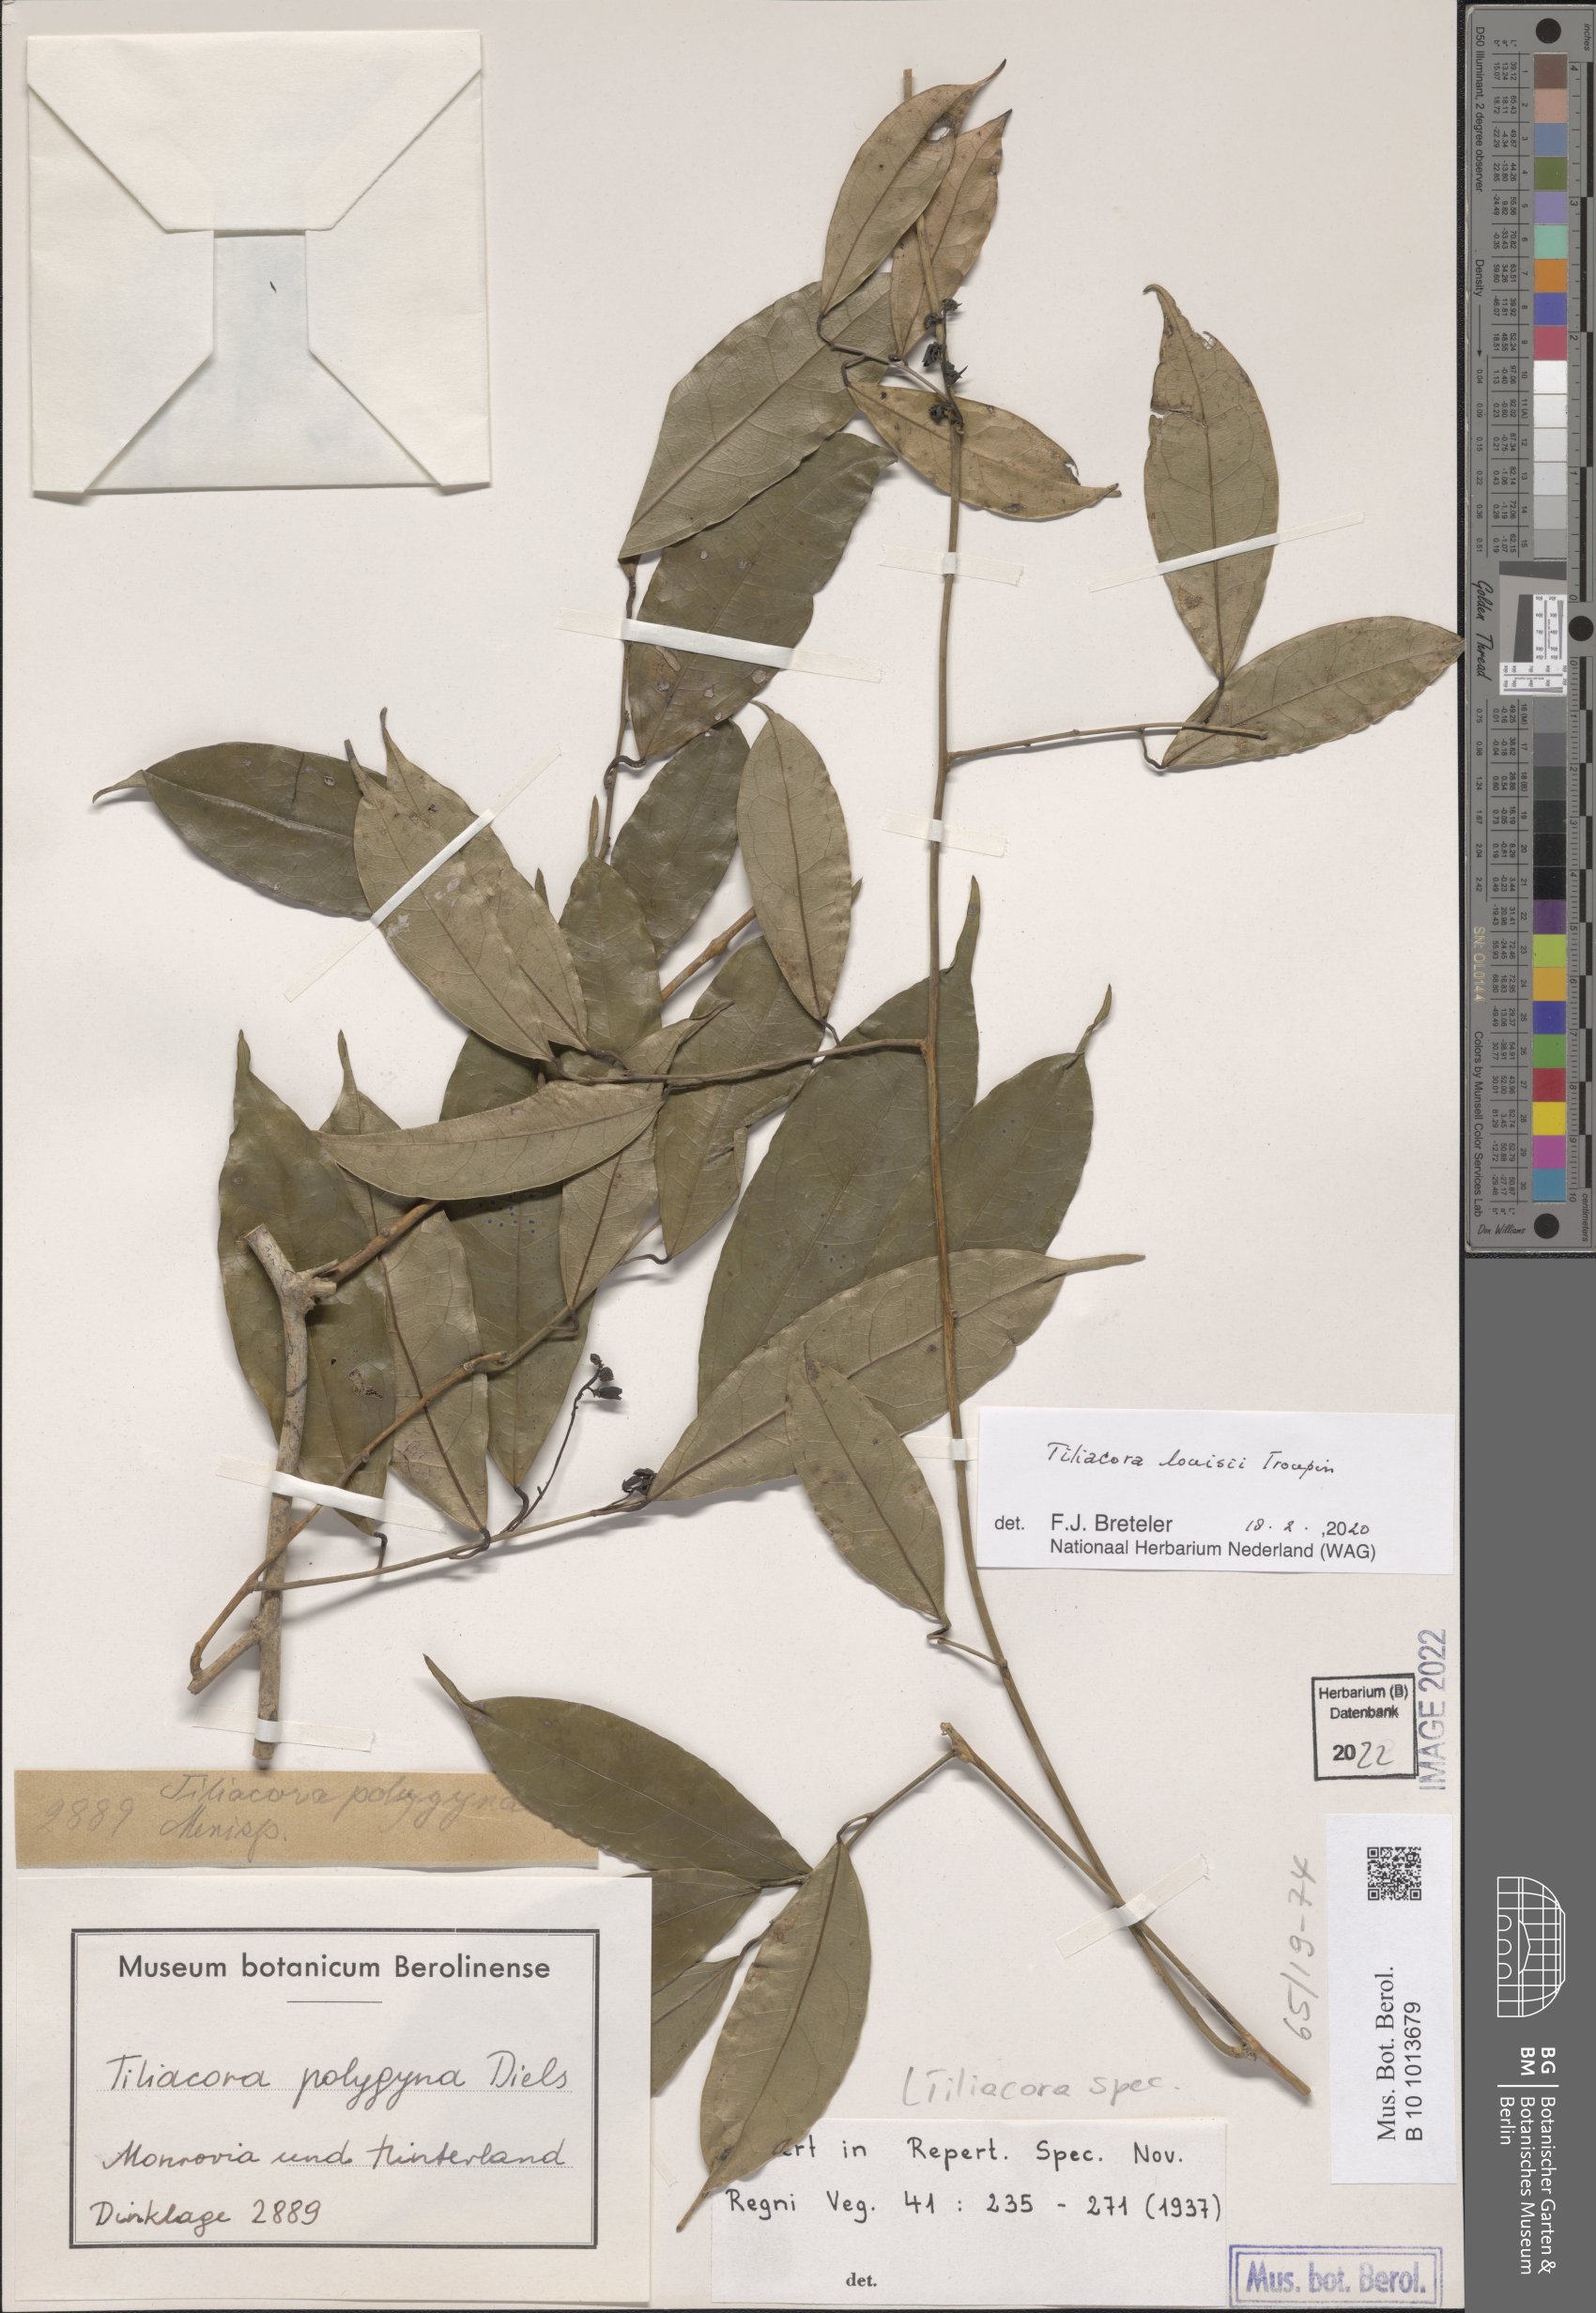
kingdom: Plantae
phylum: Tracheophyta
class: Magnoliopsida
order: Ranunculales
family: Menispermaceae
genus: Tiliacora
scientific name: Tiliacora louisii
